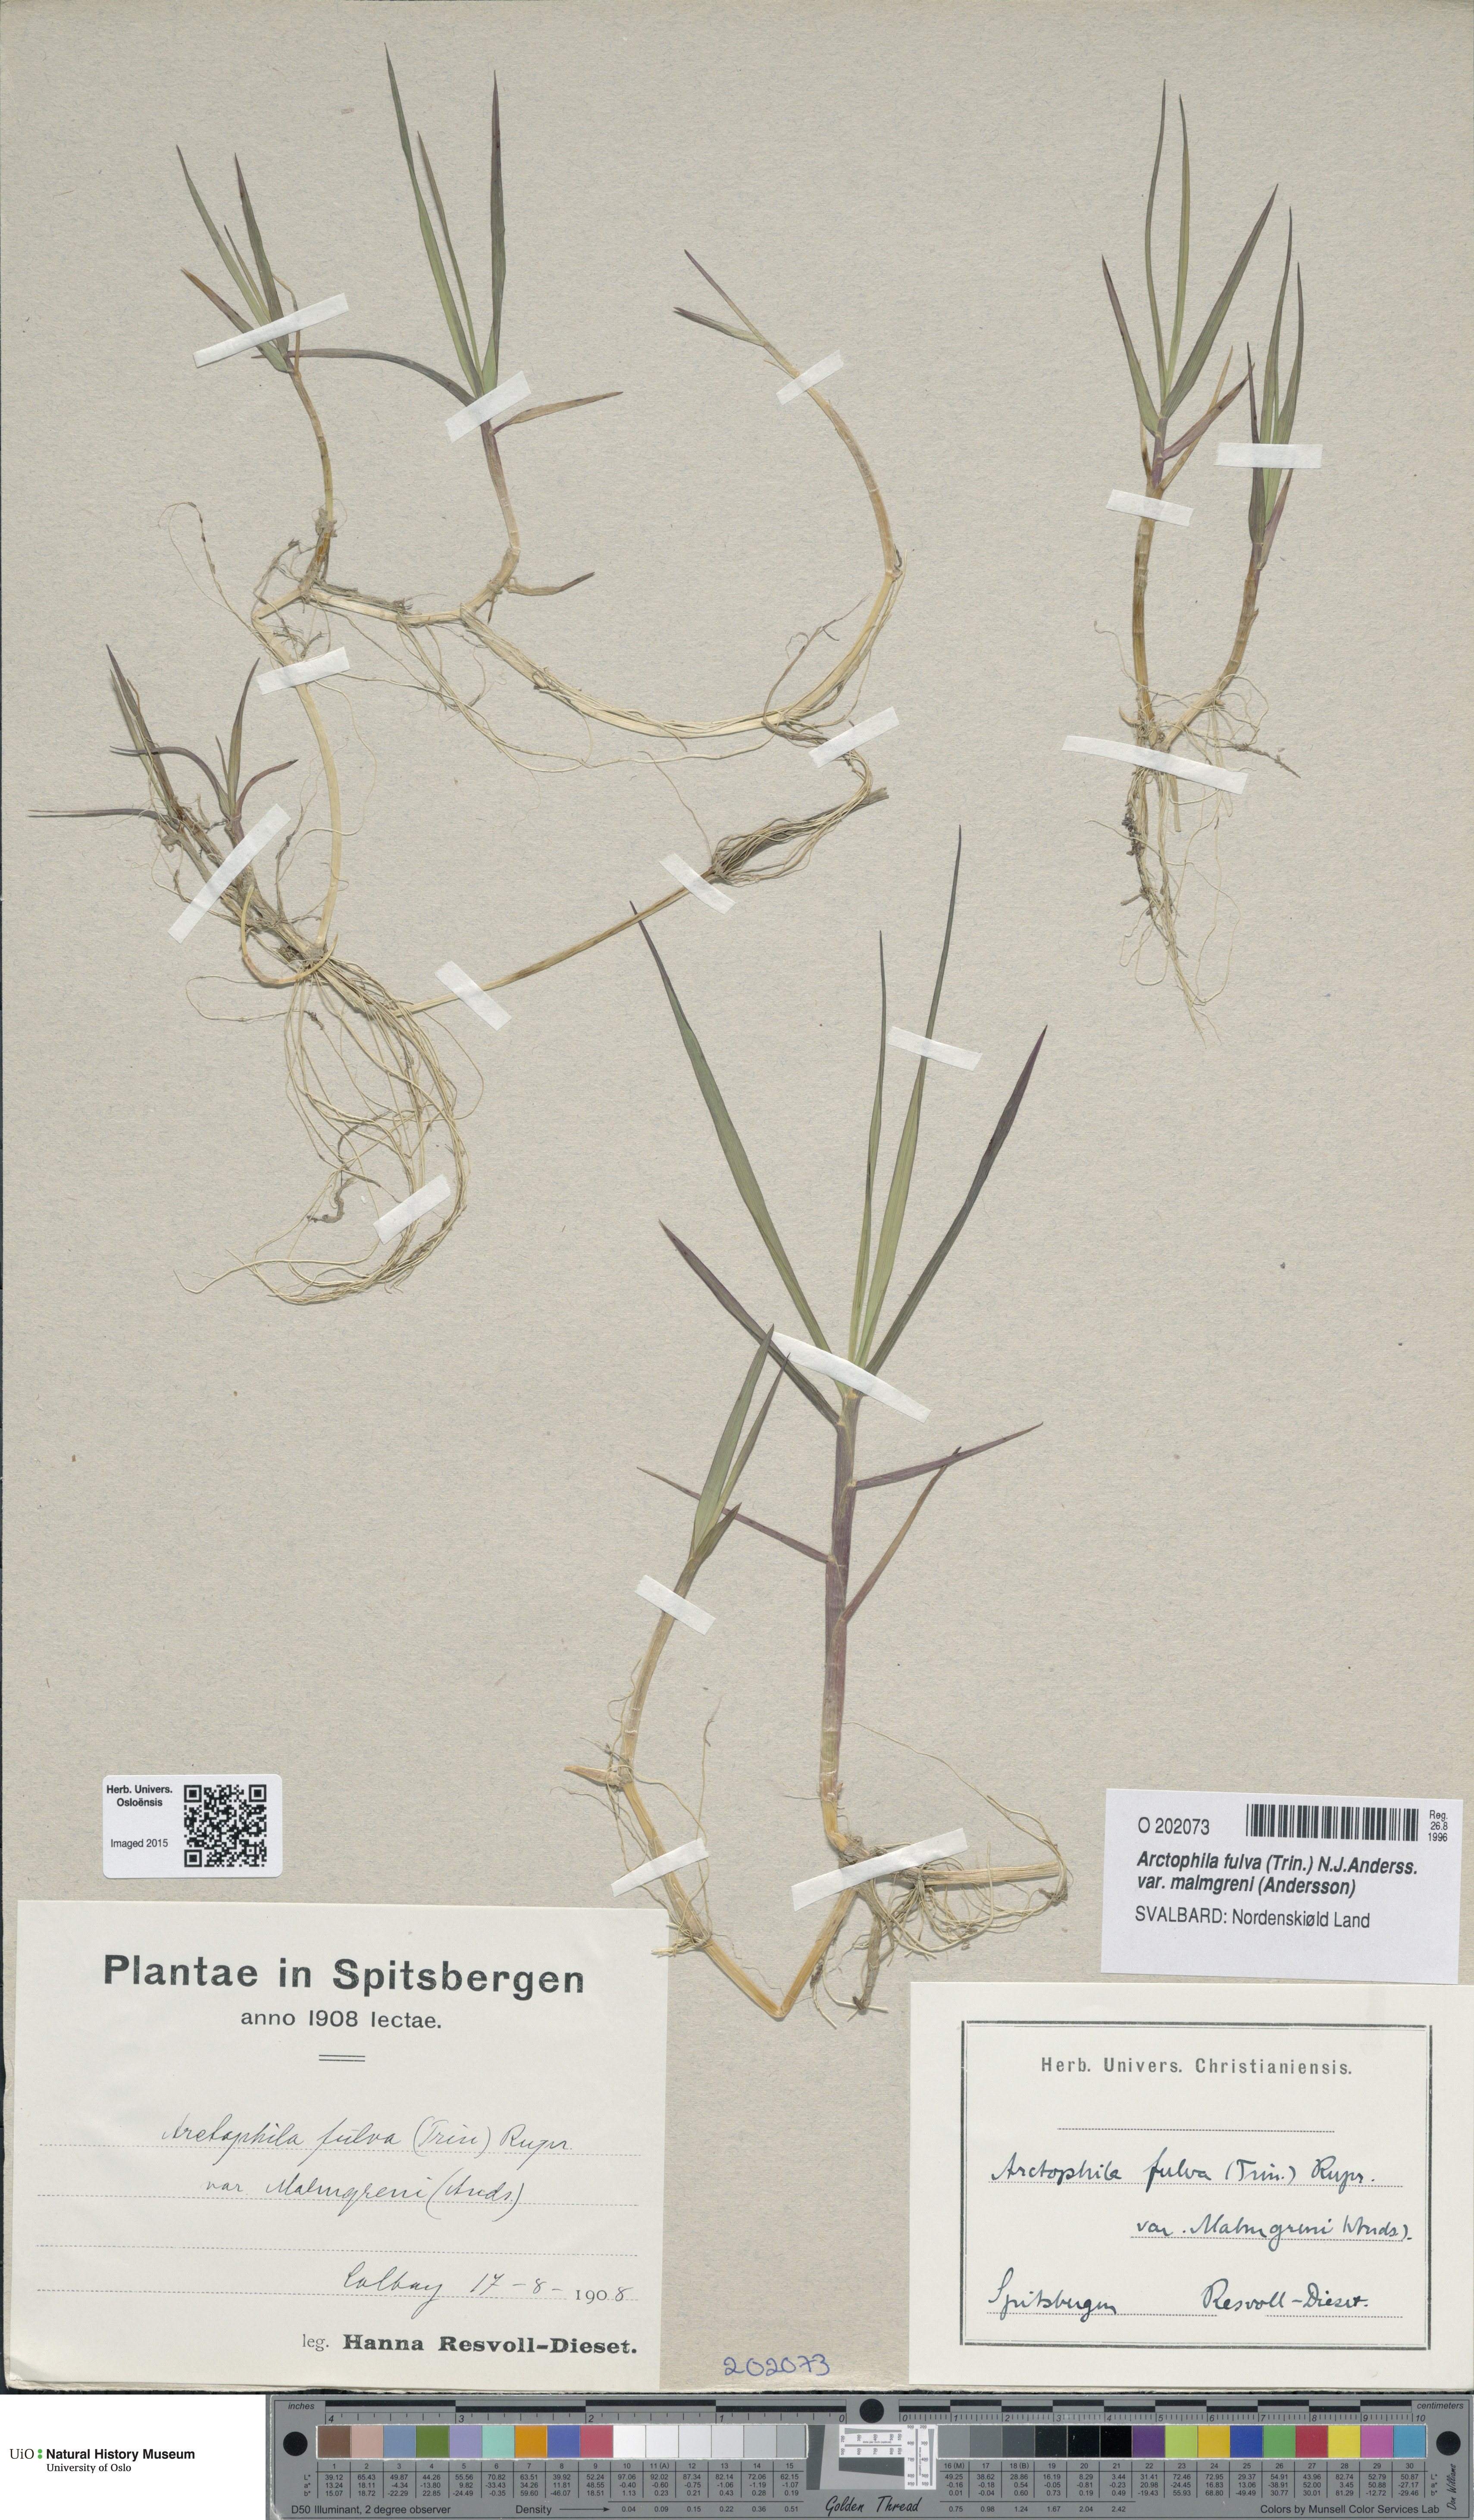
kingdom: Plantae
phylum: Tracheophyta
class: Liliopsida
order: Poales
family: Poaceae
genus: Dupontia
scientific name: Dupontia fulva
